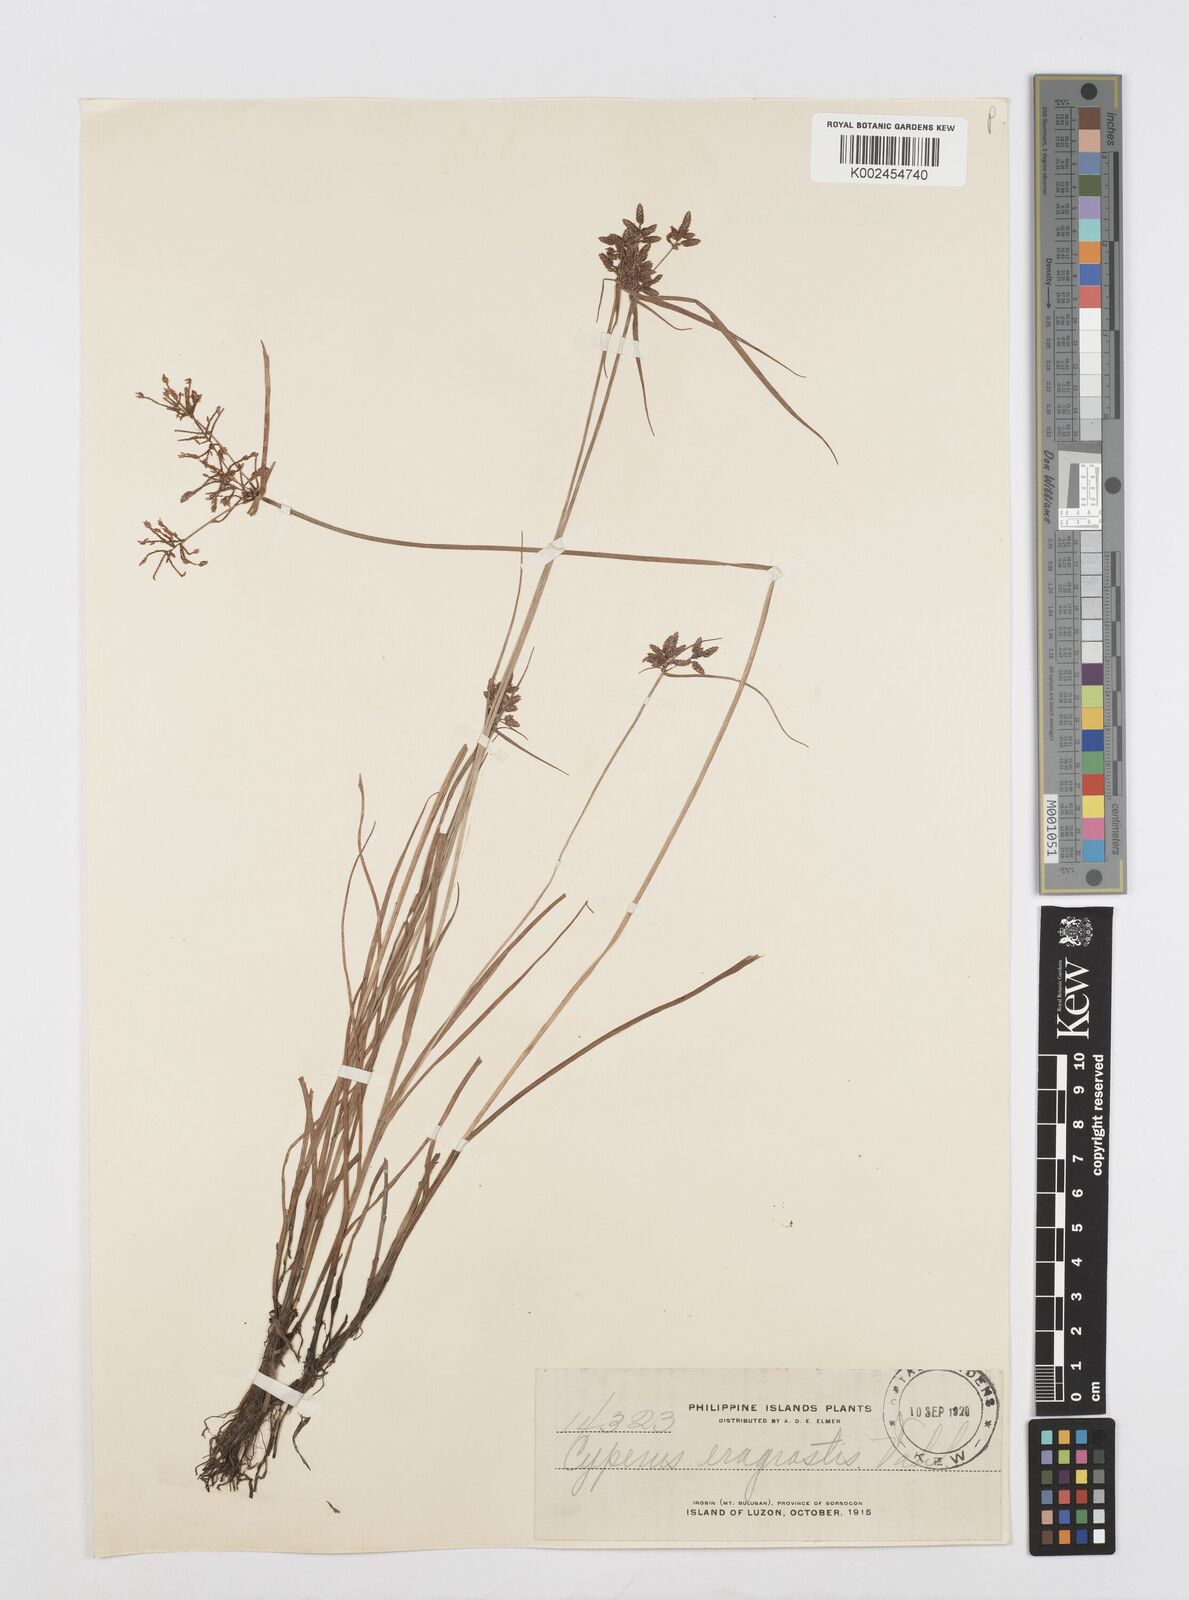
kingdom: Plantae
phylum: Tracheophyta
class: Liliopsida
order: Poales
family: Cyperaceae
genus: Cyperus
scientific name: Cyperus sanguinolentus
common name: Purpleglume flatsedge
